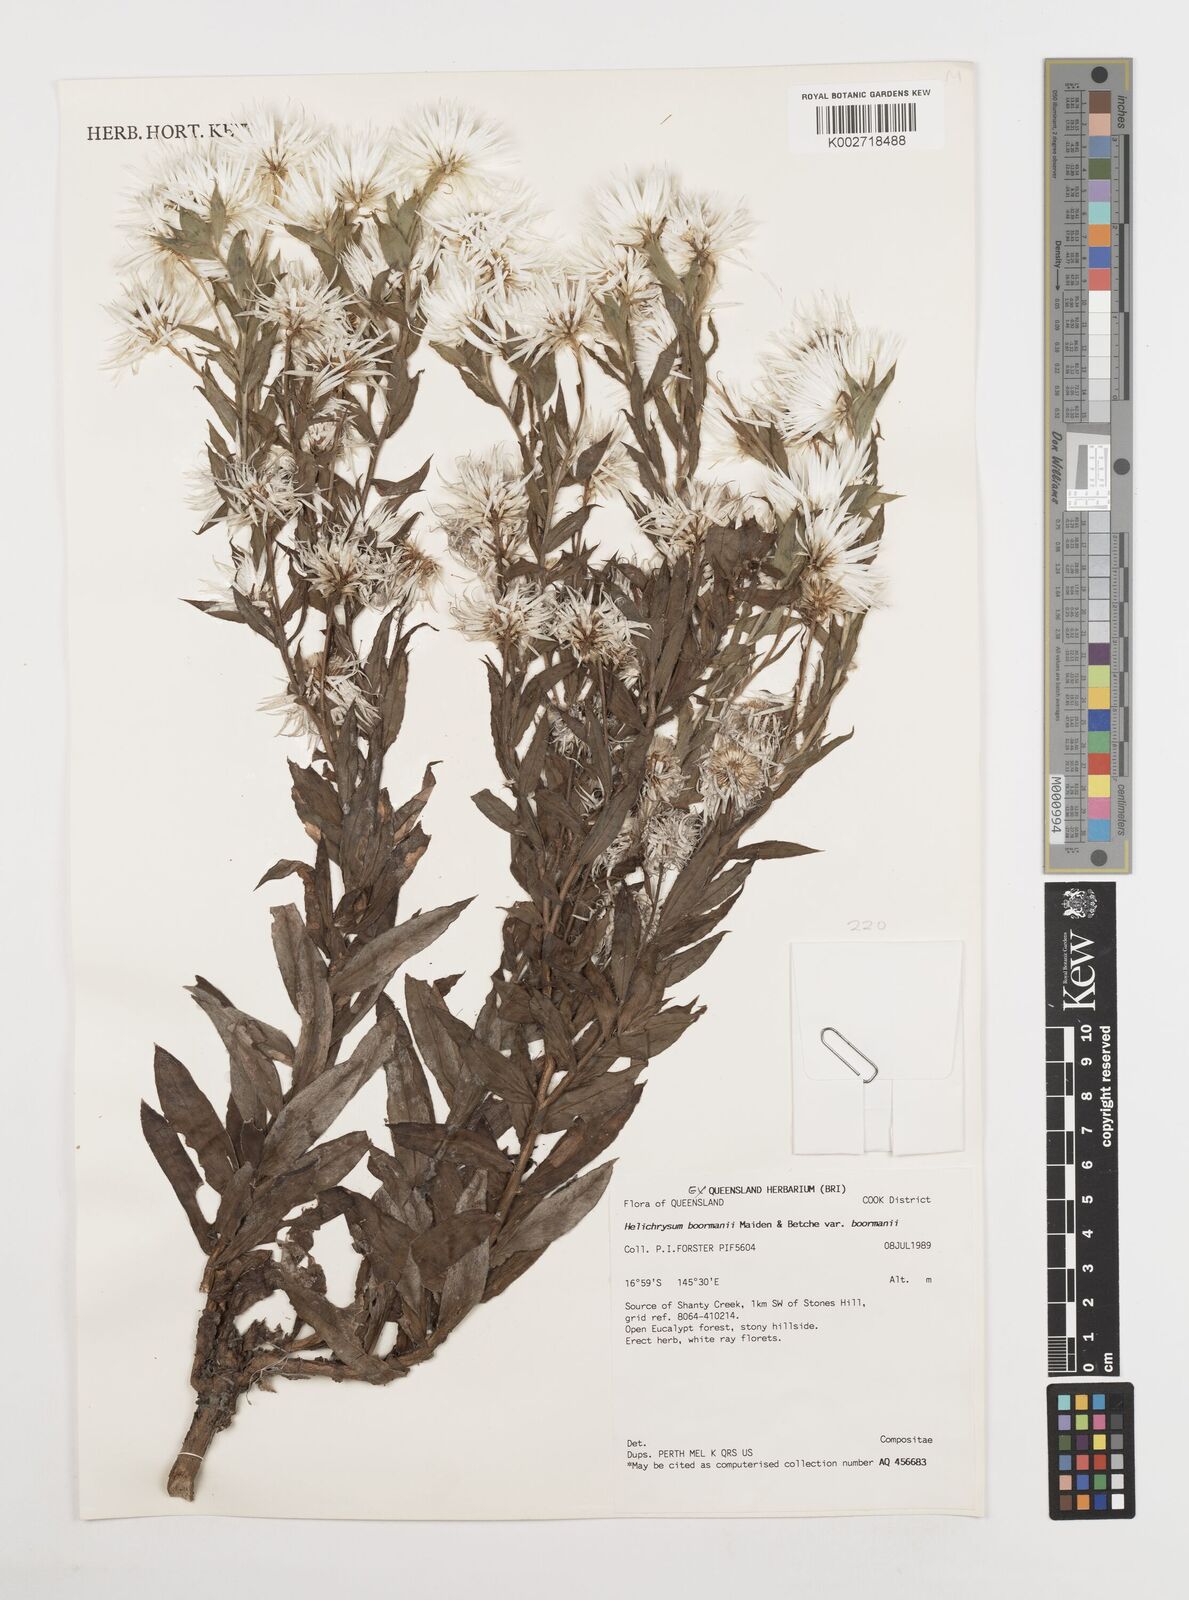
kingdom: Plantae
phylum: Tracheophyta
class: Magnoliopsida
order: Asterales
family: Asteraceae
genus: Leucozoma
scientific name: Leucozoma boormanii
